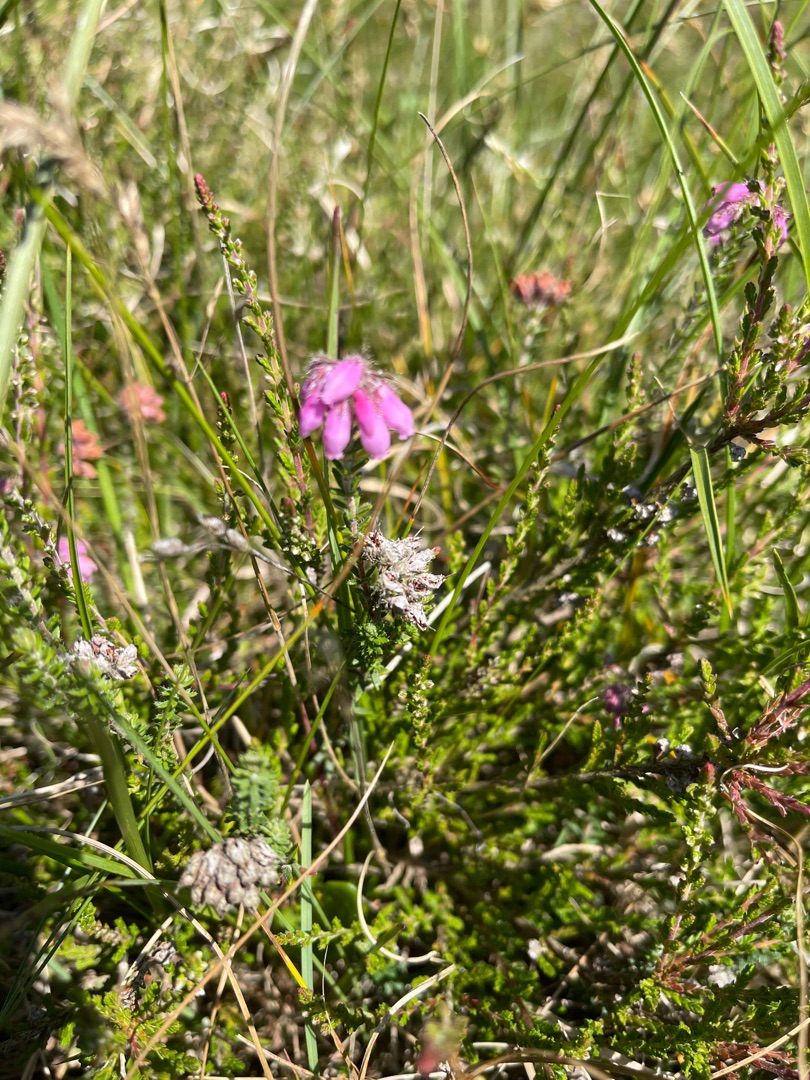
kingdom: Plantae
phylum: Tracheophyta
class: Magnoliopsida
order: Ericales
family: Ericaceae
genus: Erica
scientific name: Erica tetralix
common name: Klokkelyng
